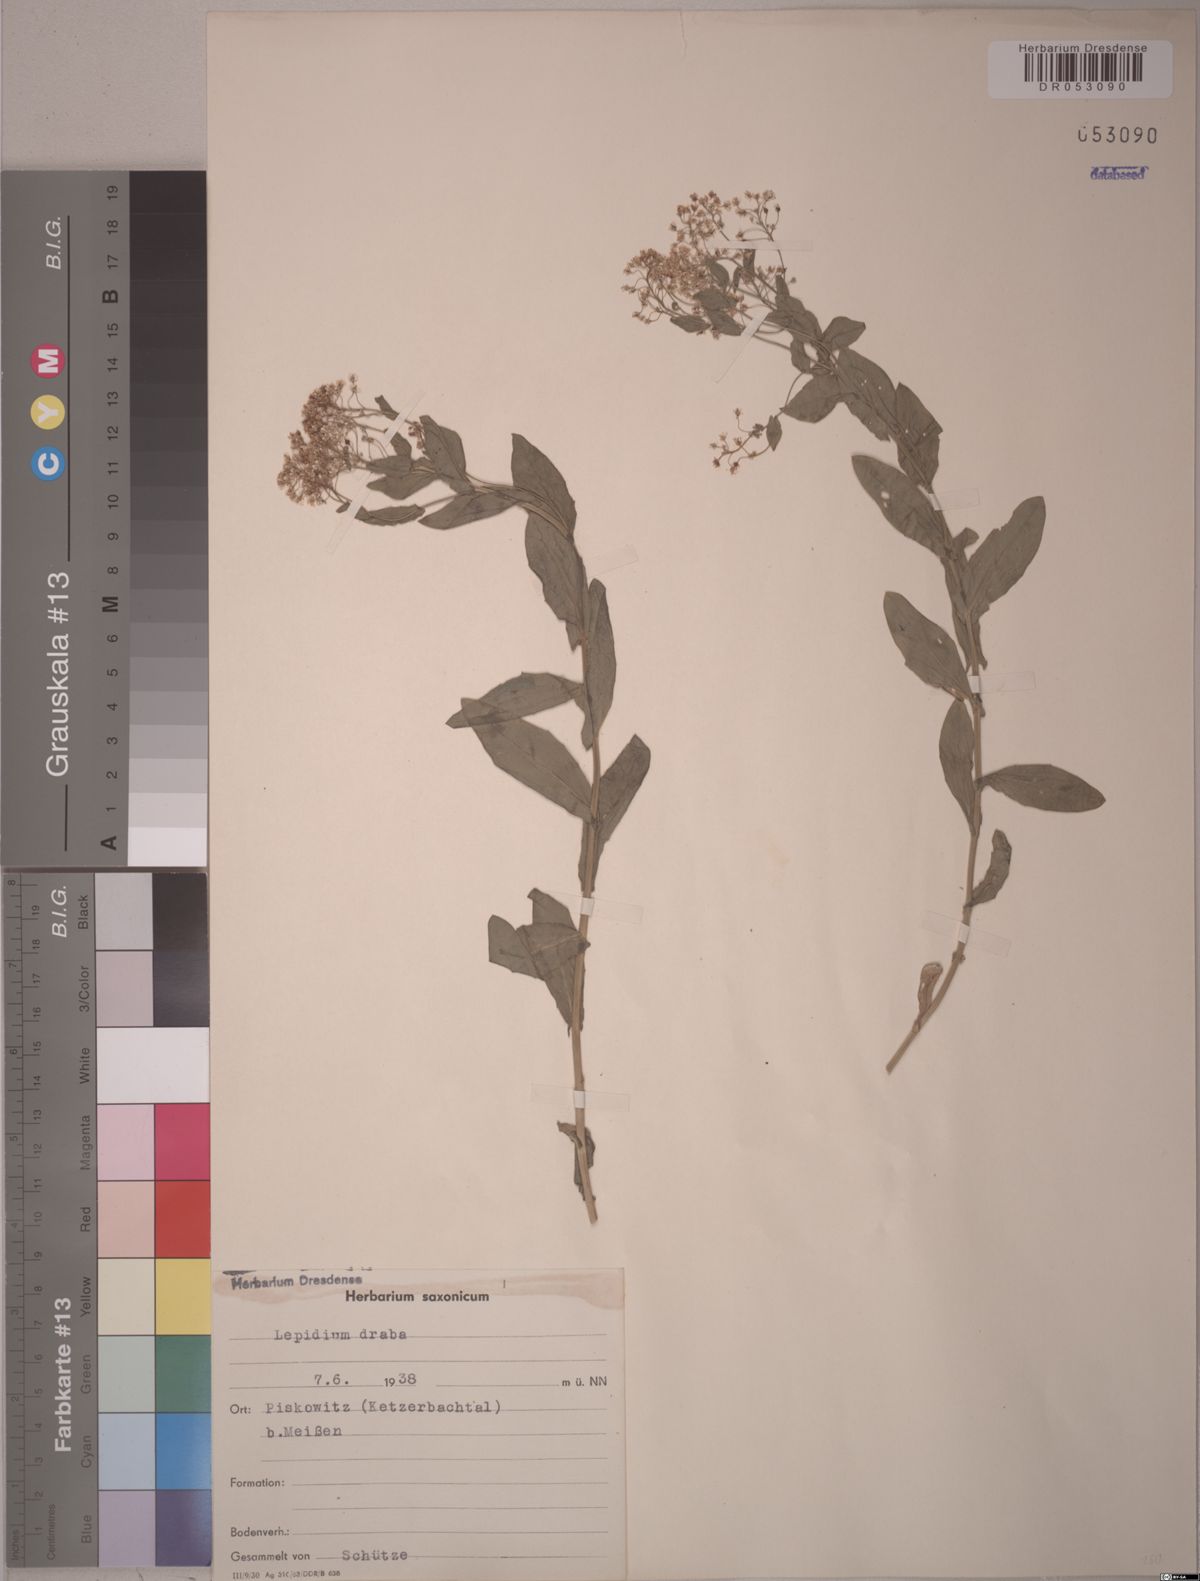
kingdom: Plantae
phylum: Tracheophyta
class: Magnoliopsida
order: Brassicales
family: Brassicaceae
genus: Lepidium
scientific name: Lepidium draba
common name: Hoary cress
